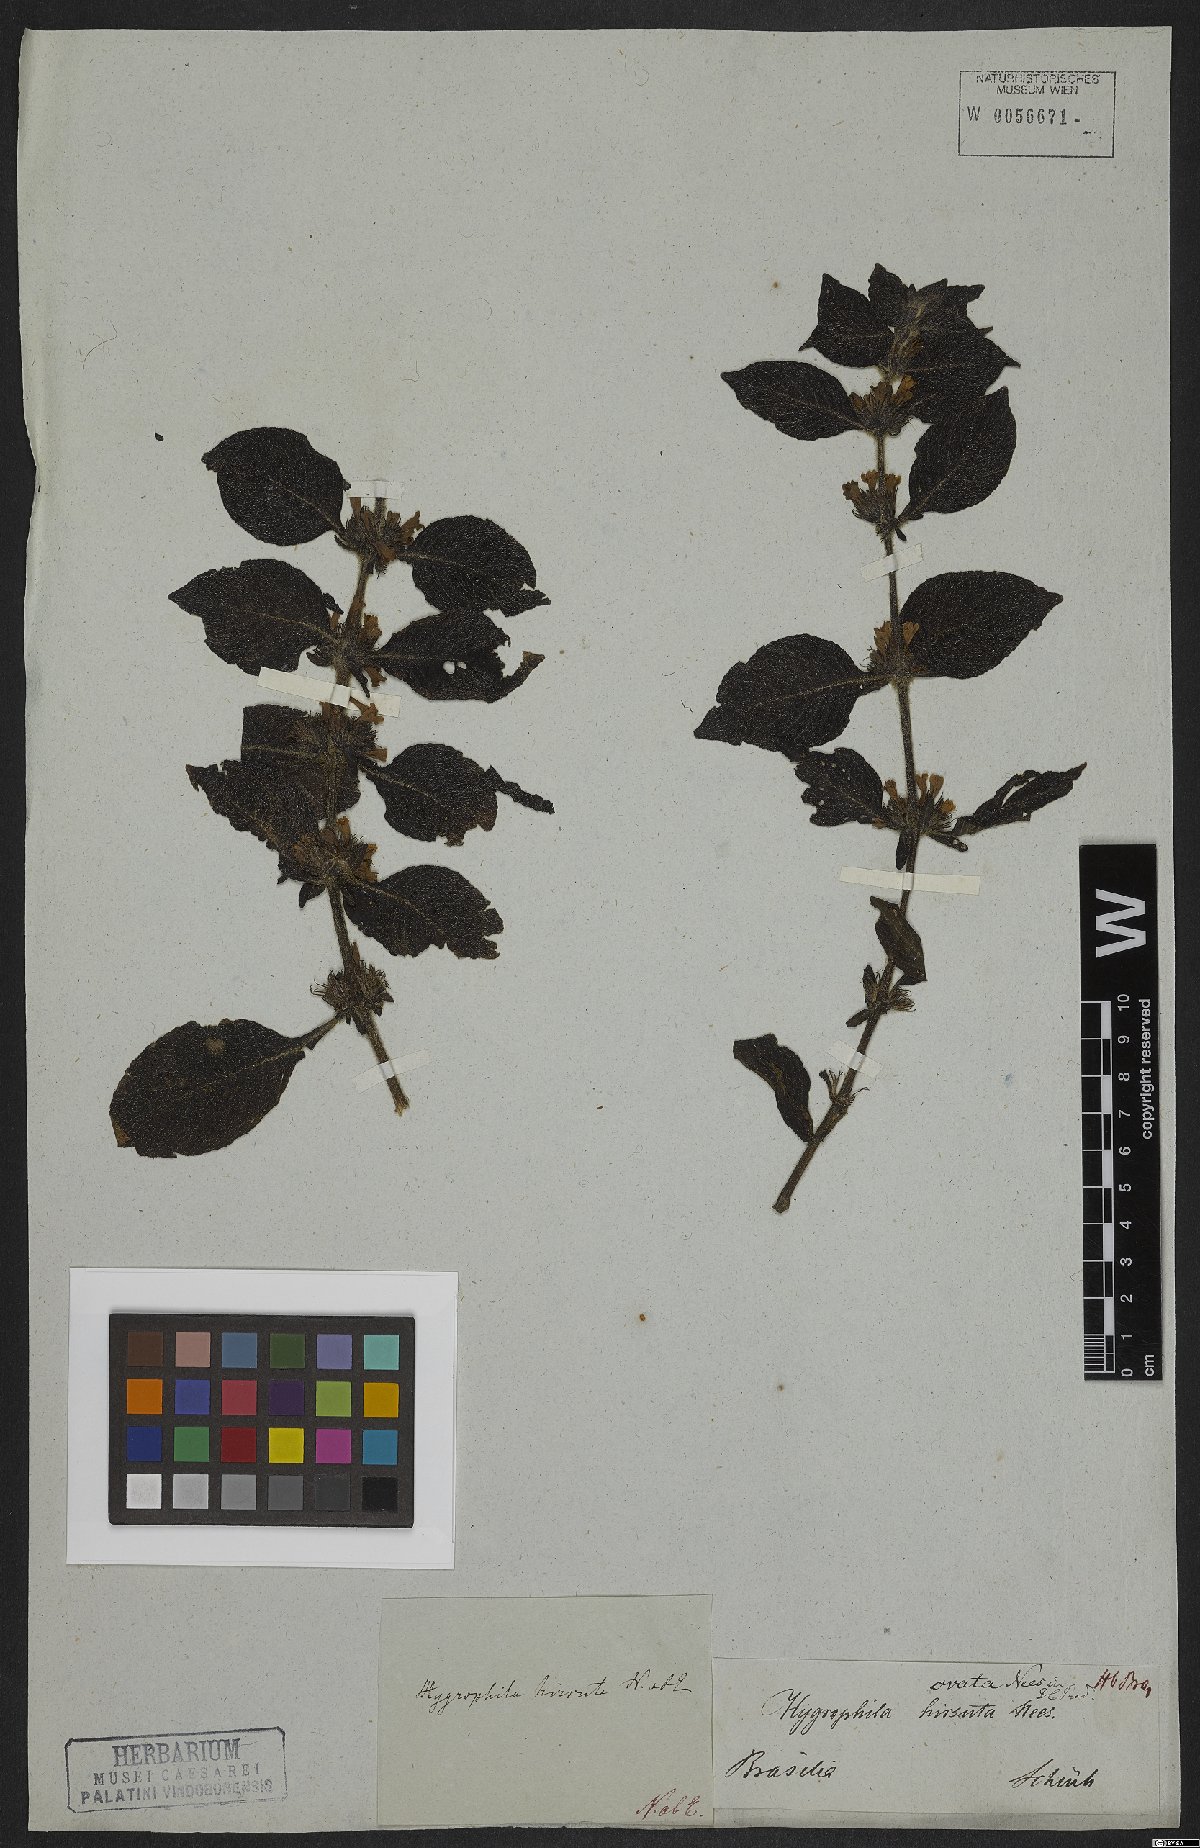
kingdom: Plantae
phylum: Tracheophyta
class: Magnoliopsida
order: Lamiales
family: Acanthaceae
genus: Hygrophila
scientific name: Hygrophila hirsuta
